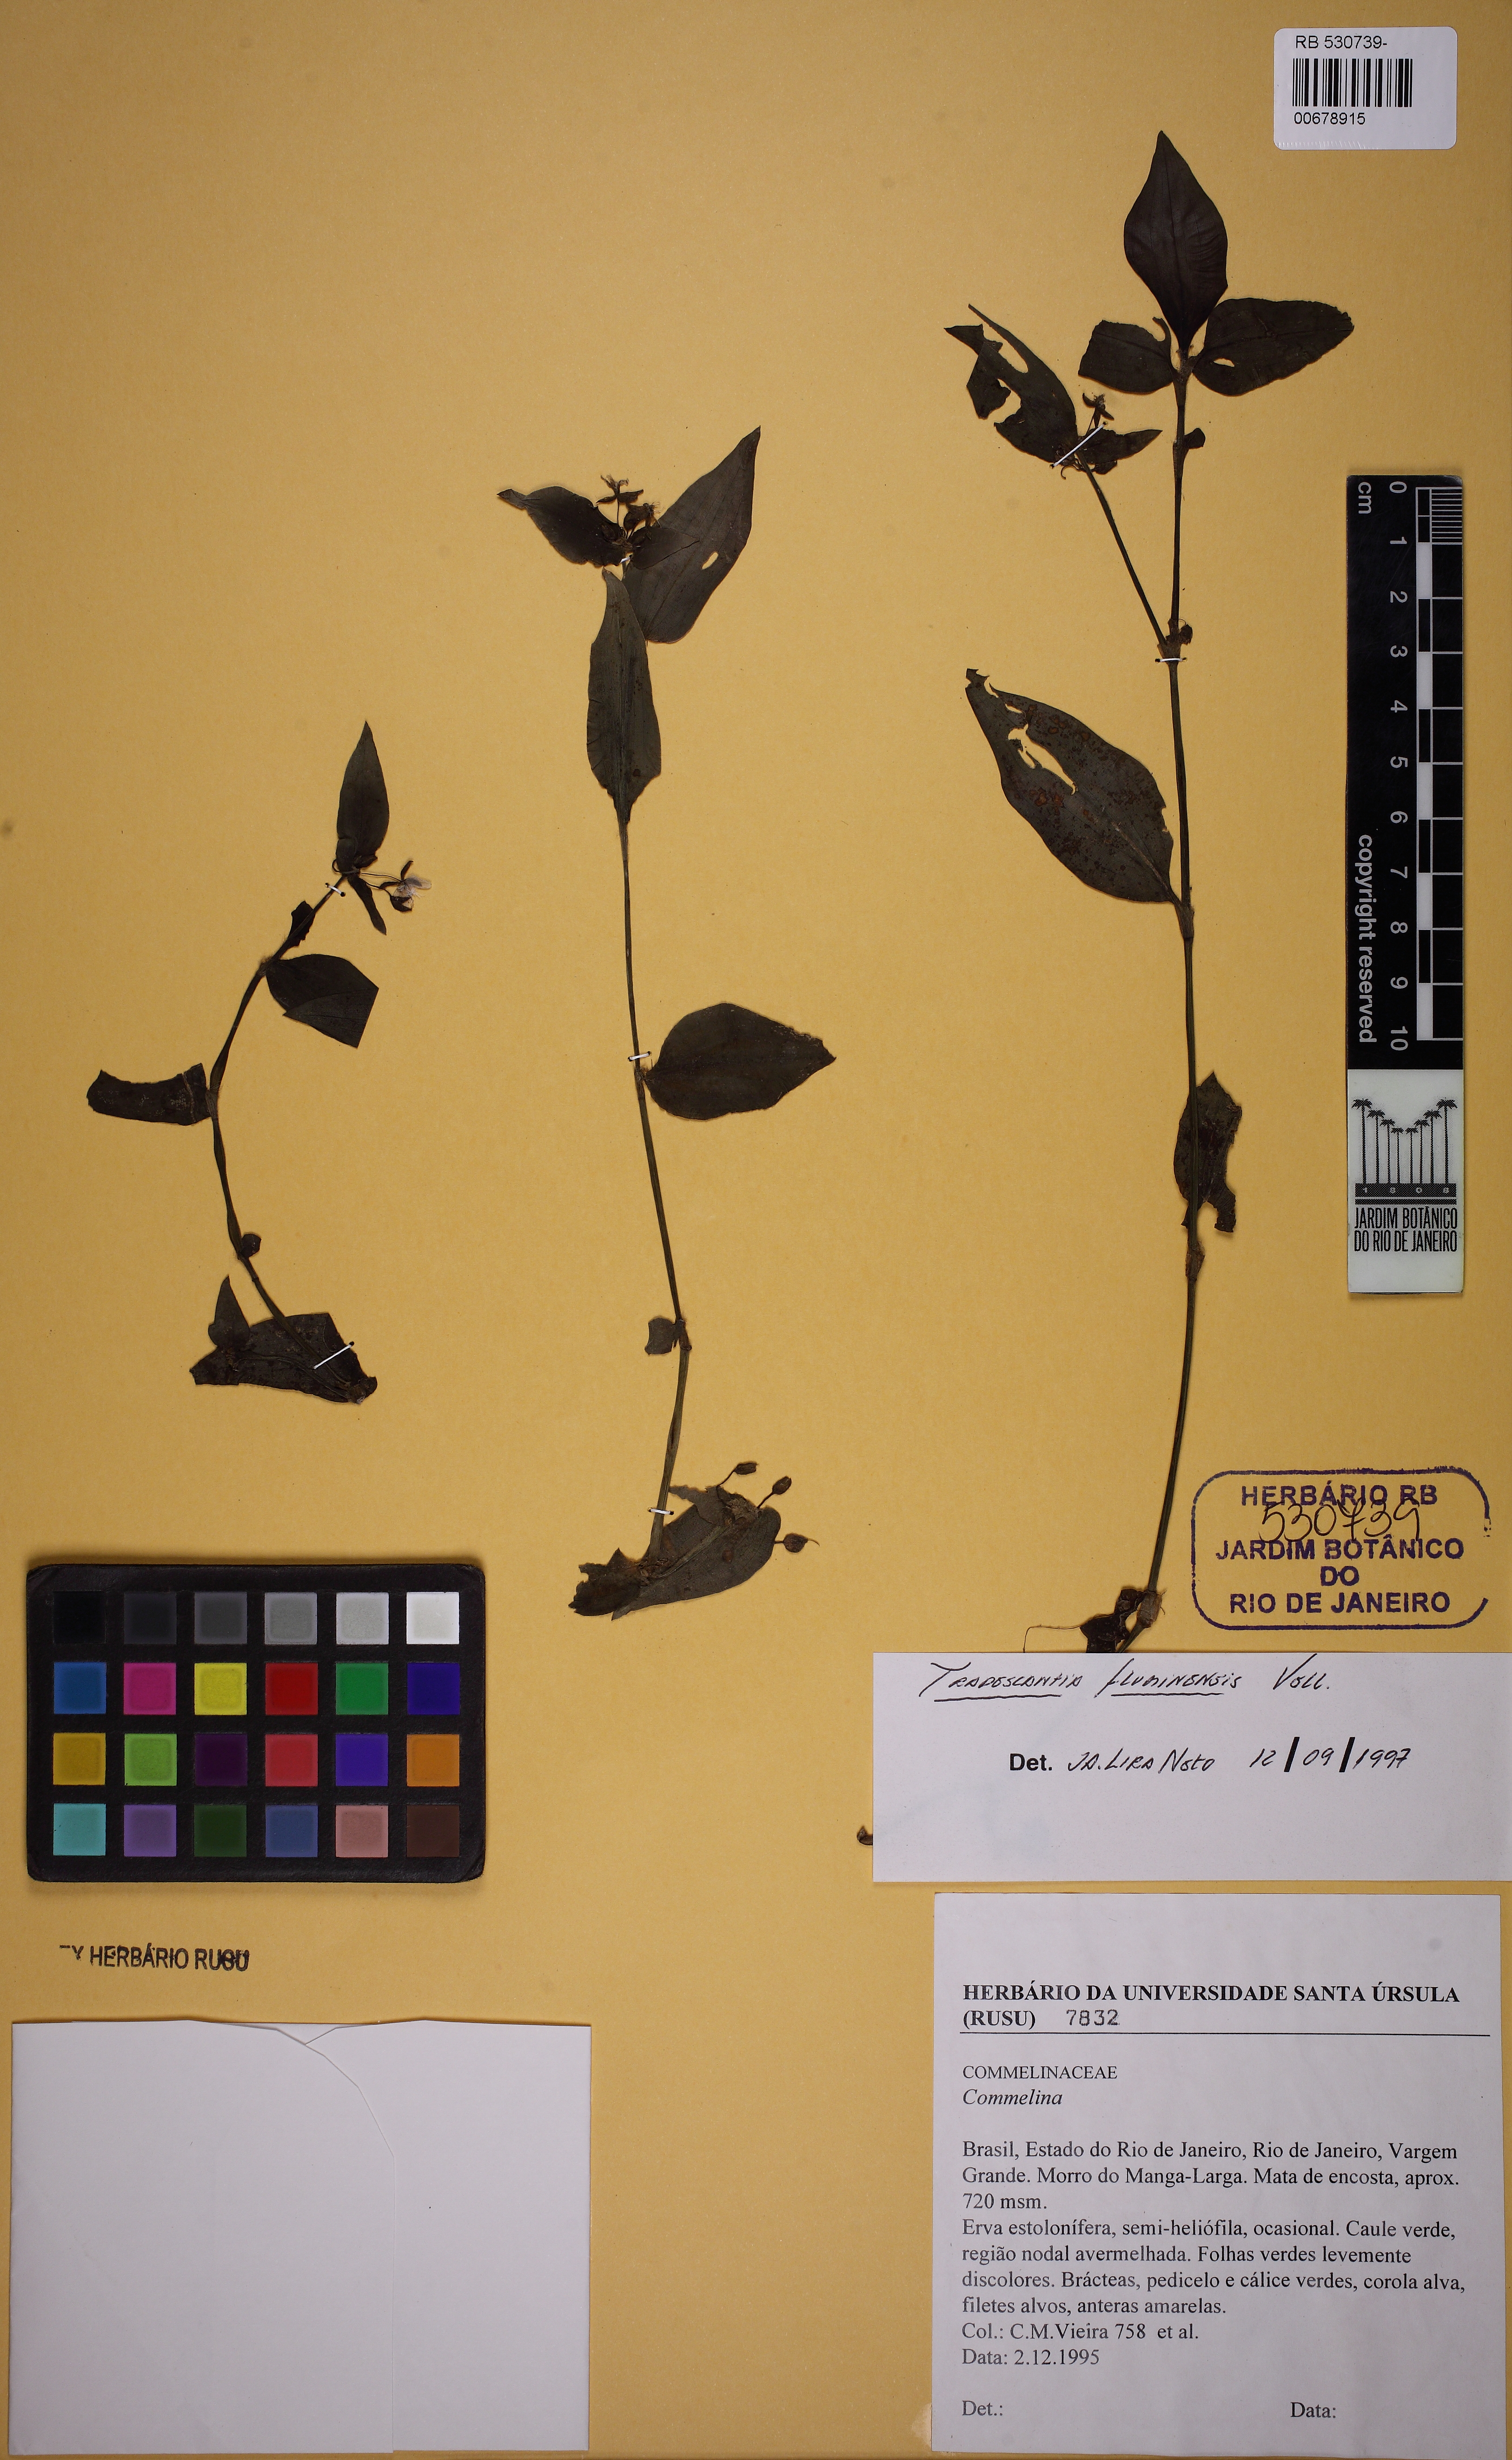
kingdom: Plantae
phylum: Tracheophyta
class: Liliopsida
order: Commelinales
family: Commelinaceae
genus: Tradescantia
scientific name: Tradescantia fluminensis
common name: Wandering-jew
